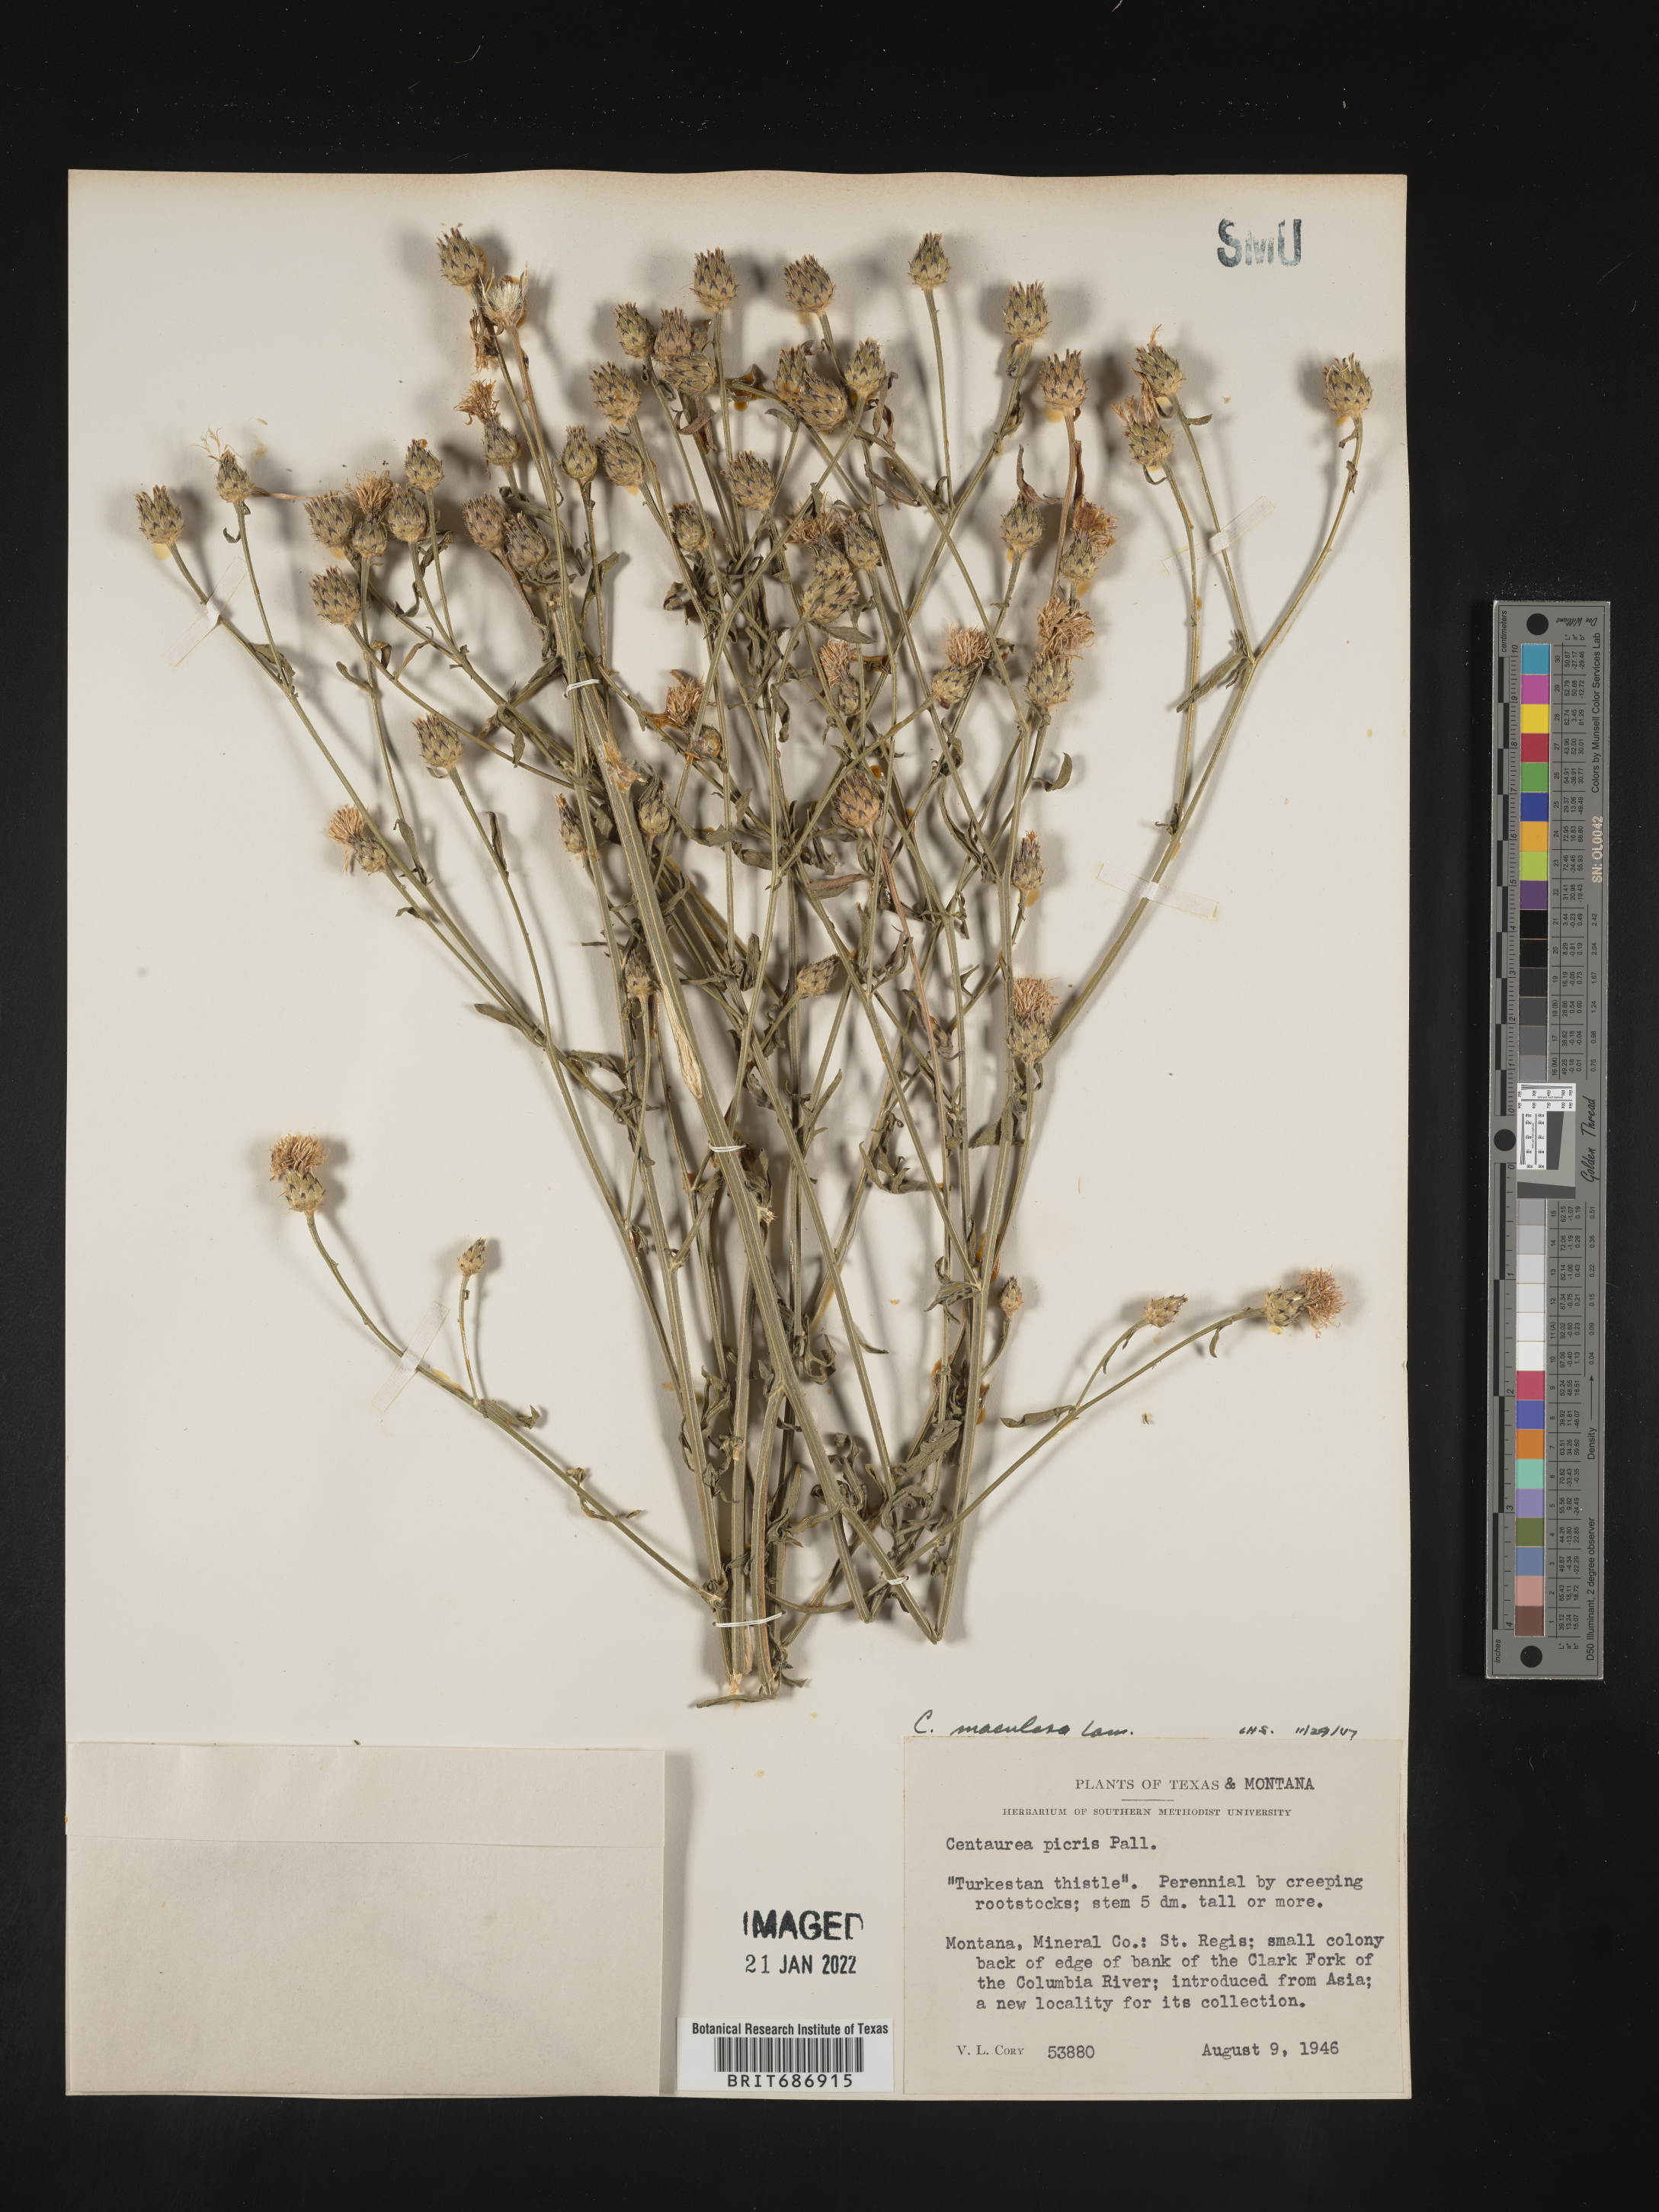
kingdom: Plantae
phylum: Tracheophyta
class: Magnoliopsida
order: Asterales
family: Asteraceae
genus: Centaurea
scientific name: Centaurea stoebe
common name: Spotted knapweed
